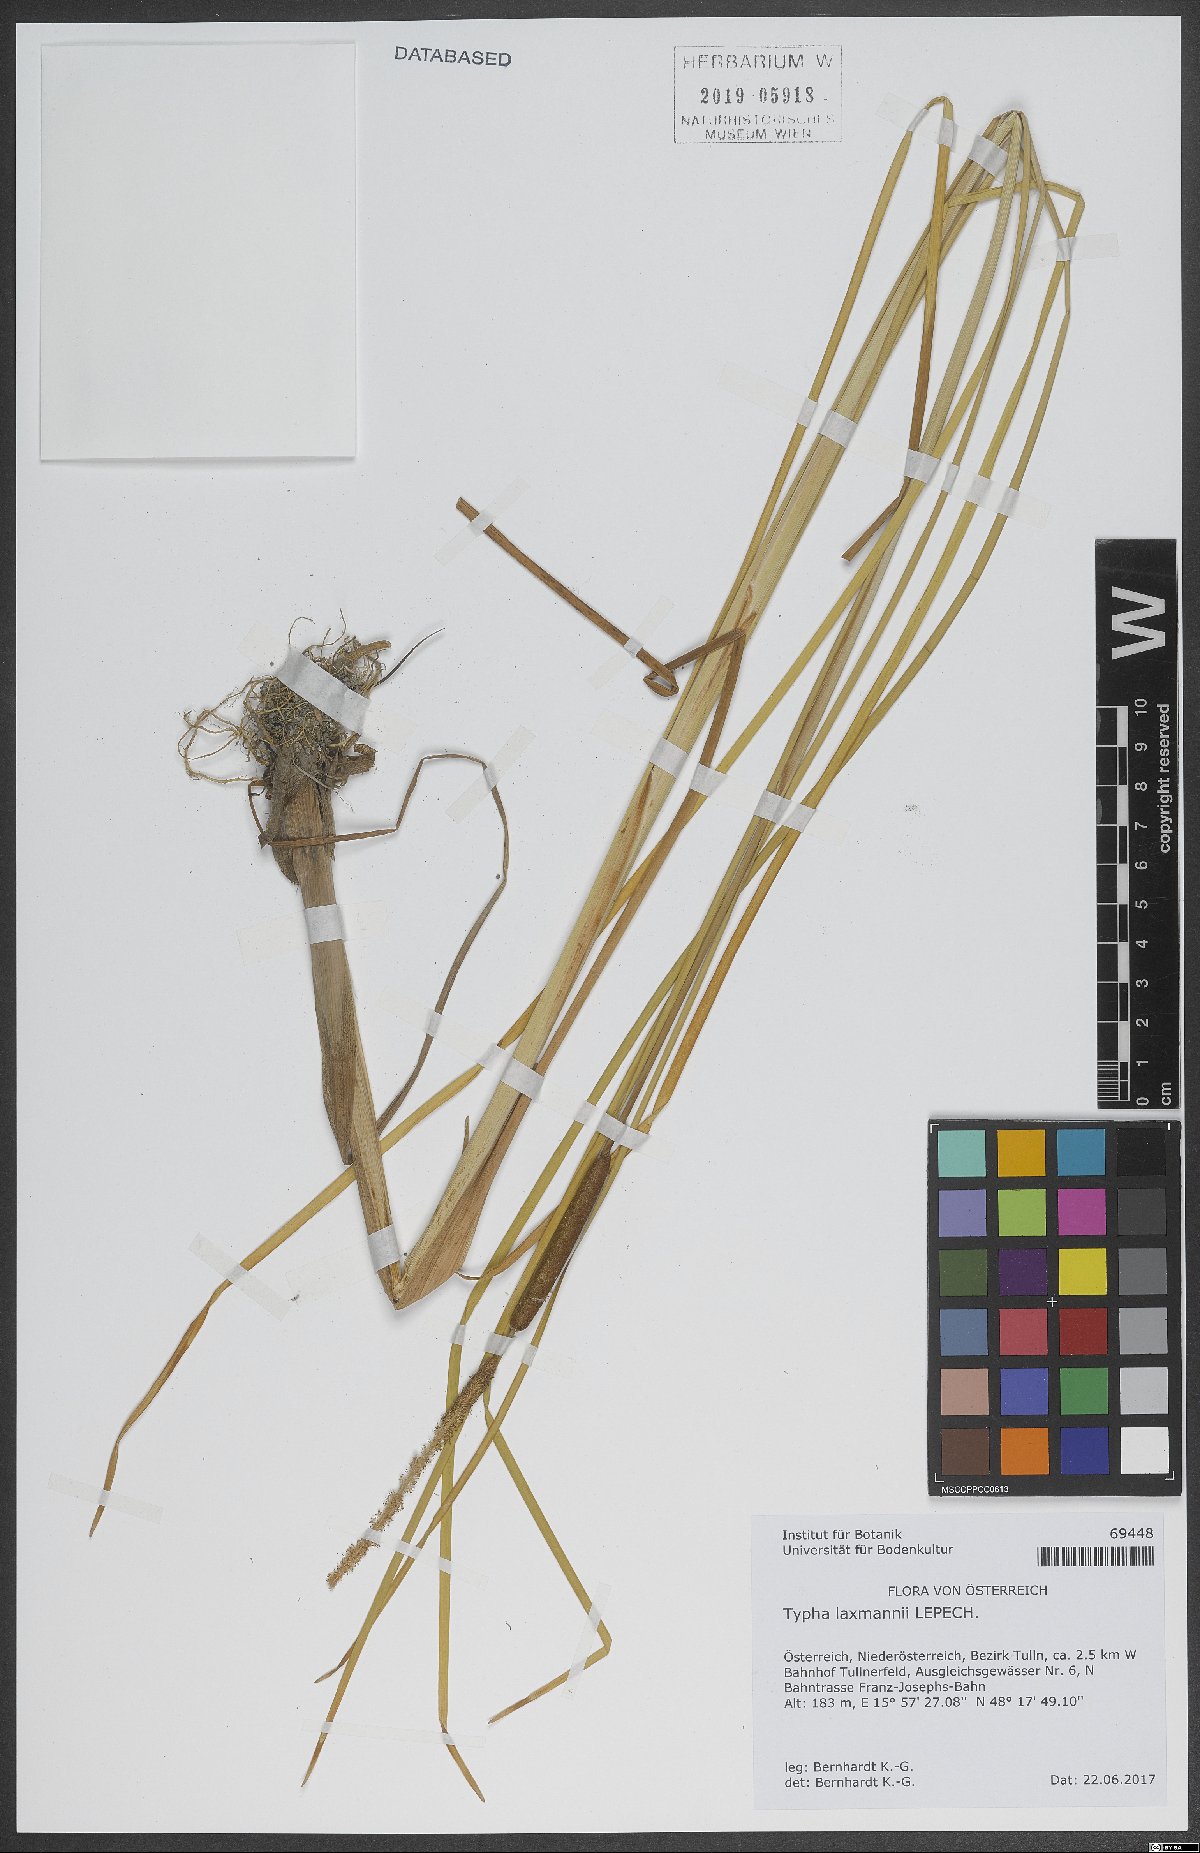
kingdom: Plantae
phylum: Tracheophyta
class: Liliopsida
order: Poales
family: Typhaceae
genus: Typha
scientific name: Typha laxmannii
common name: Laxman’s bulrush
